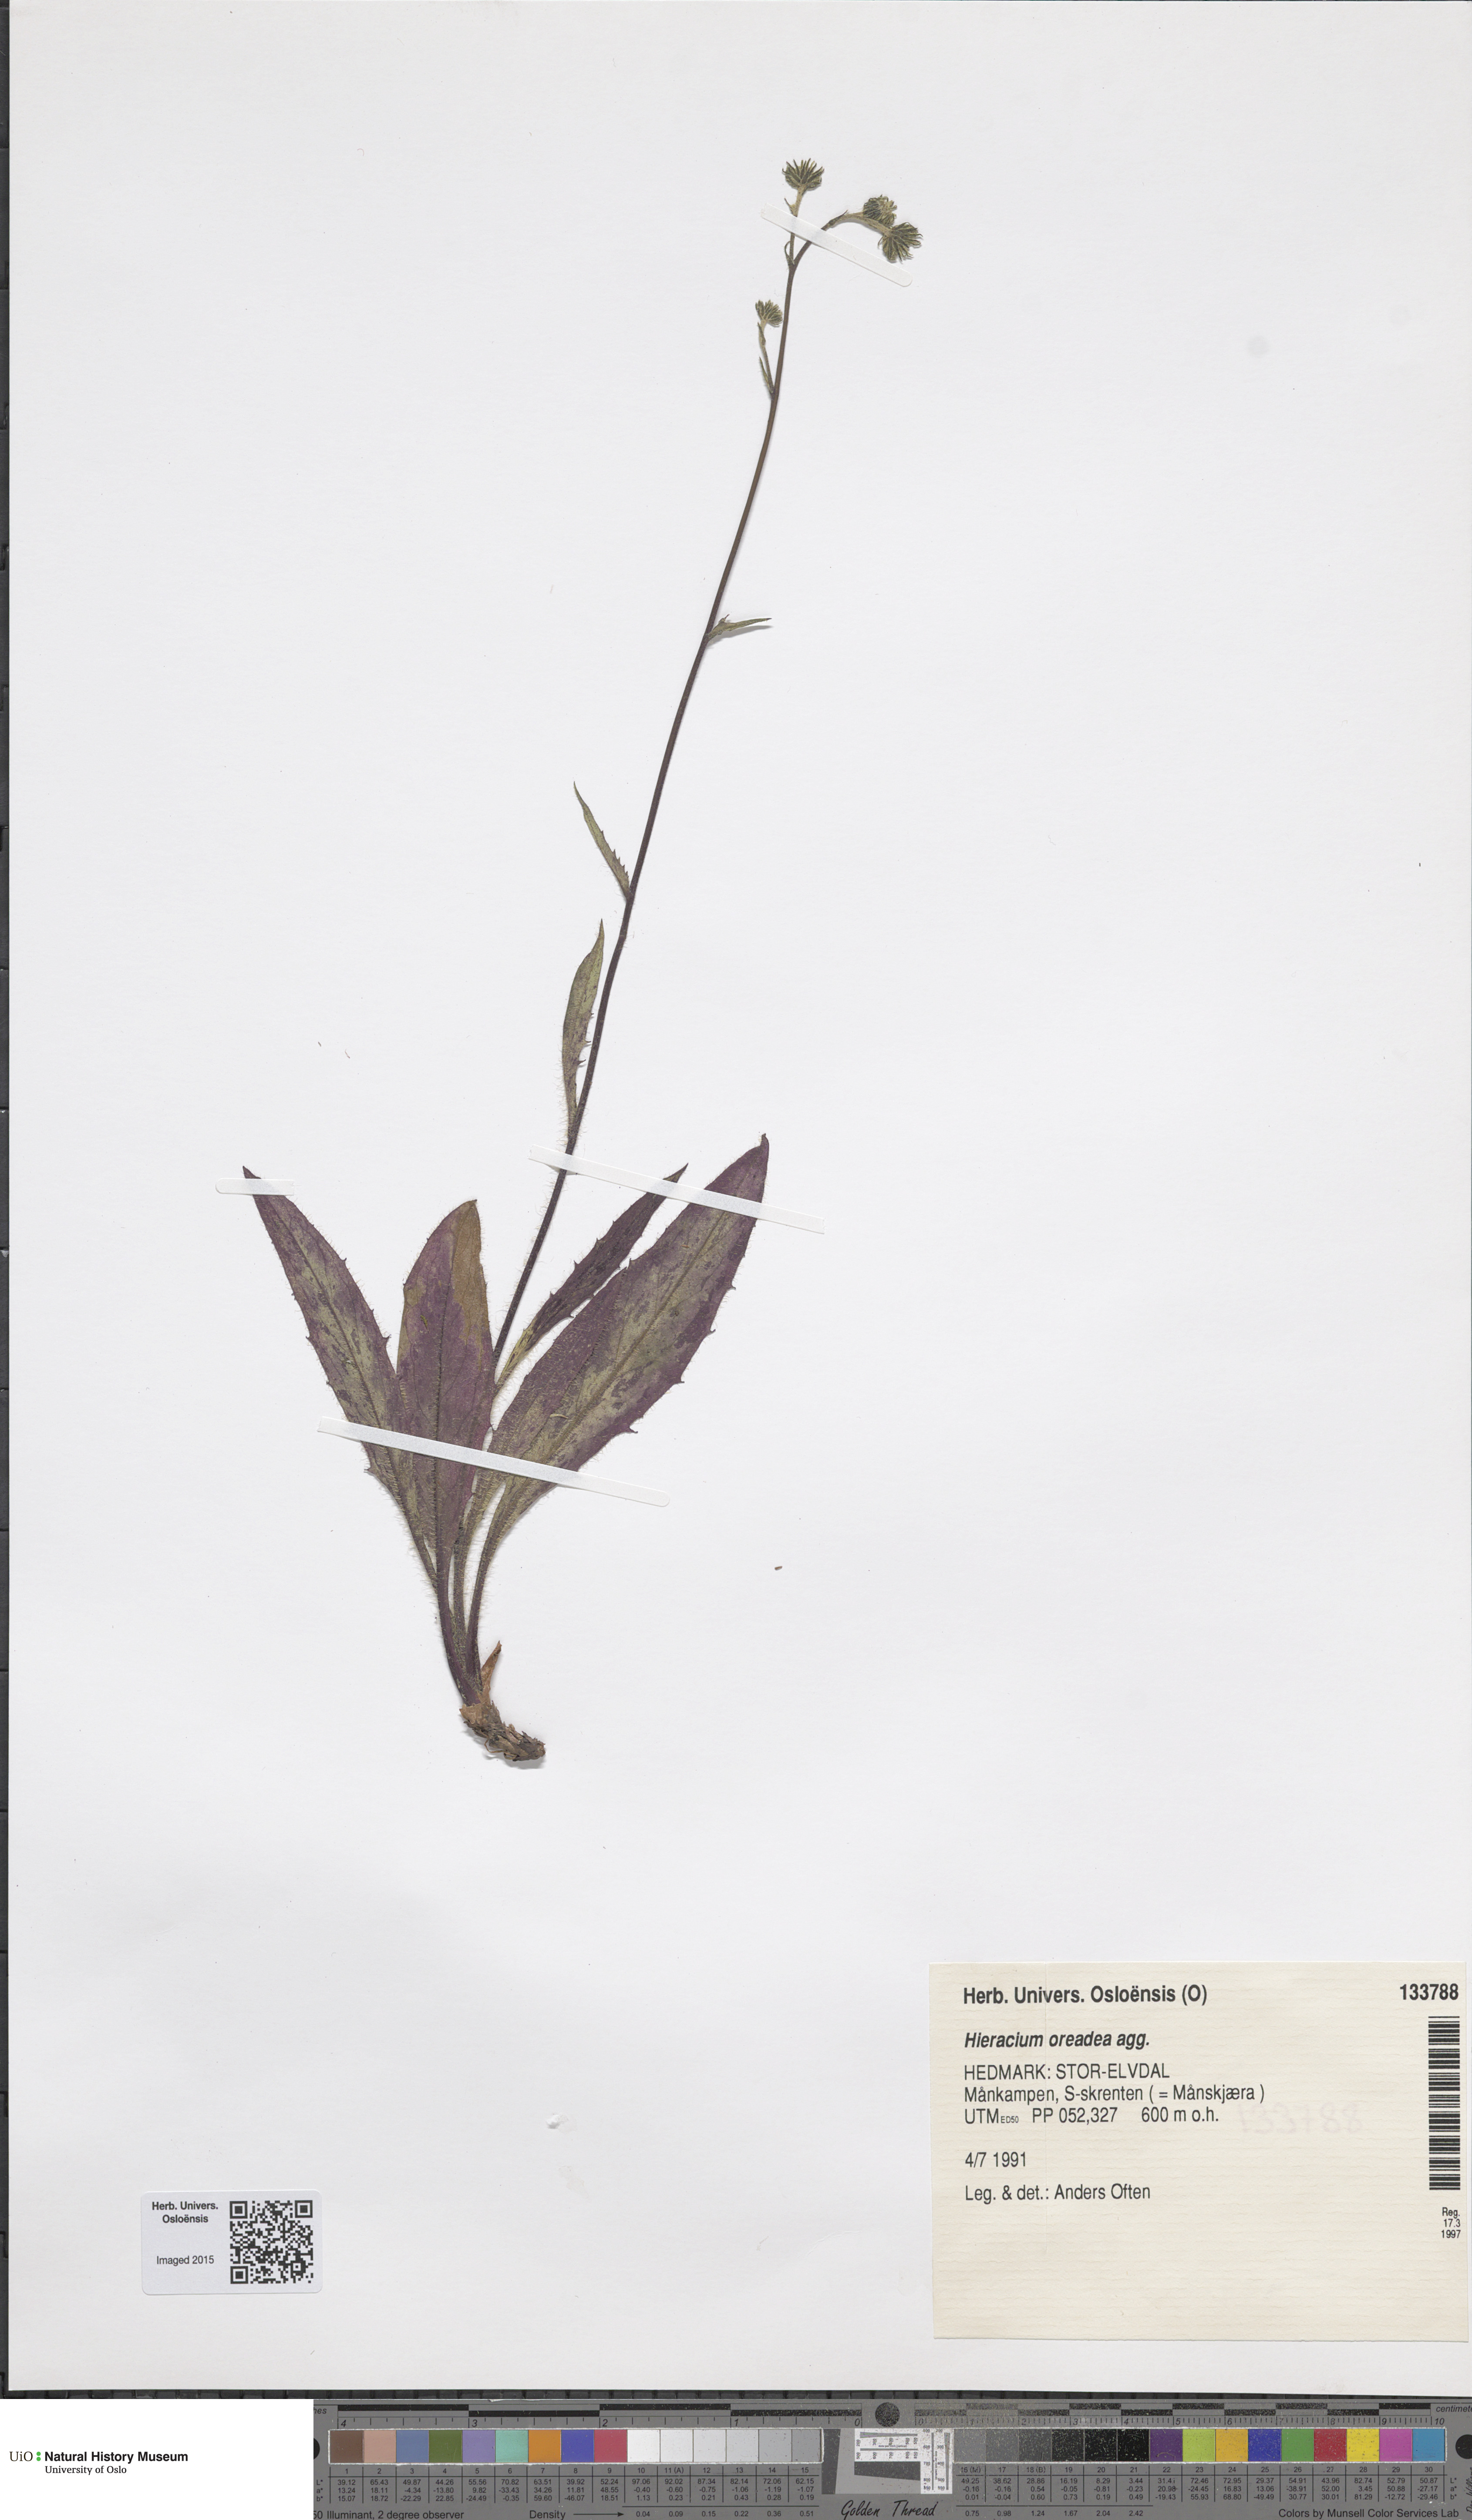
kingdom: Plantae
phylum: Tracheophyta
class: Magnoliopsida
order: Asterales
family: Asteraceae
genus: Hieracium
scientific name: Hieracium
